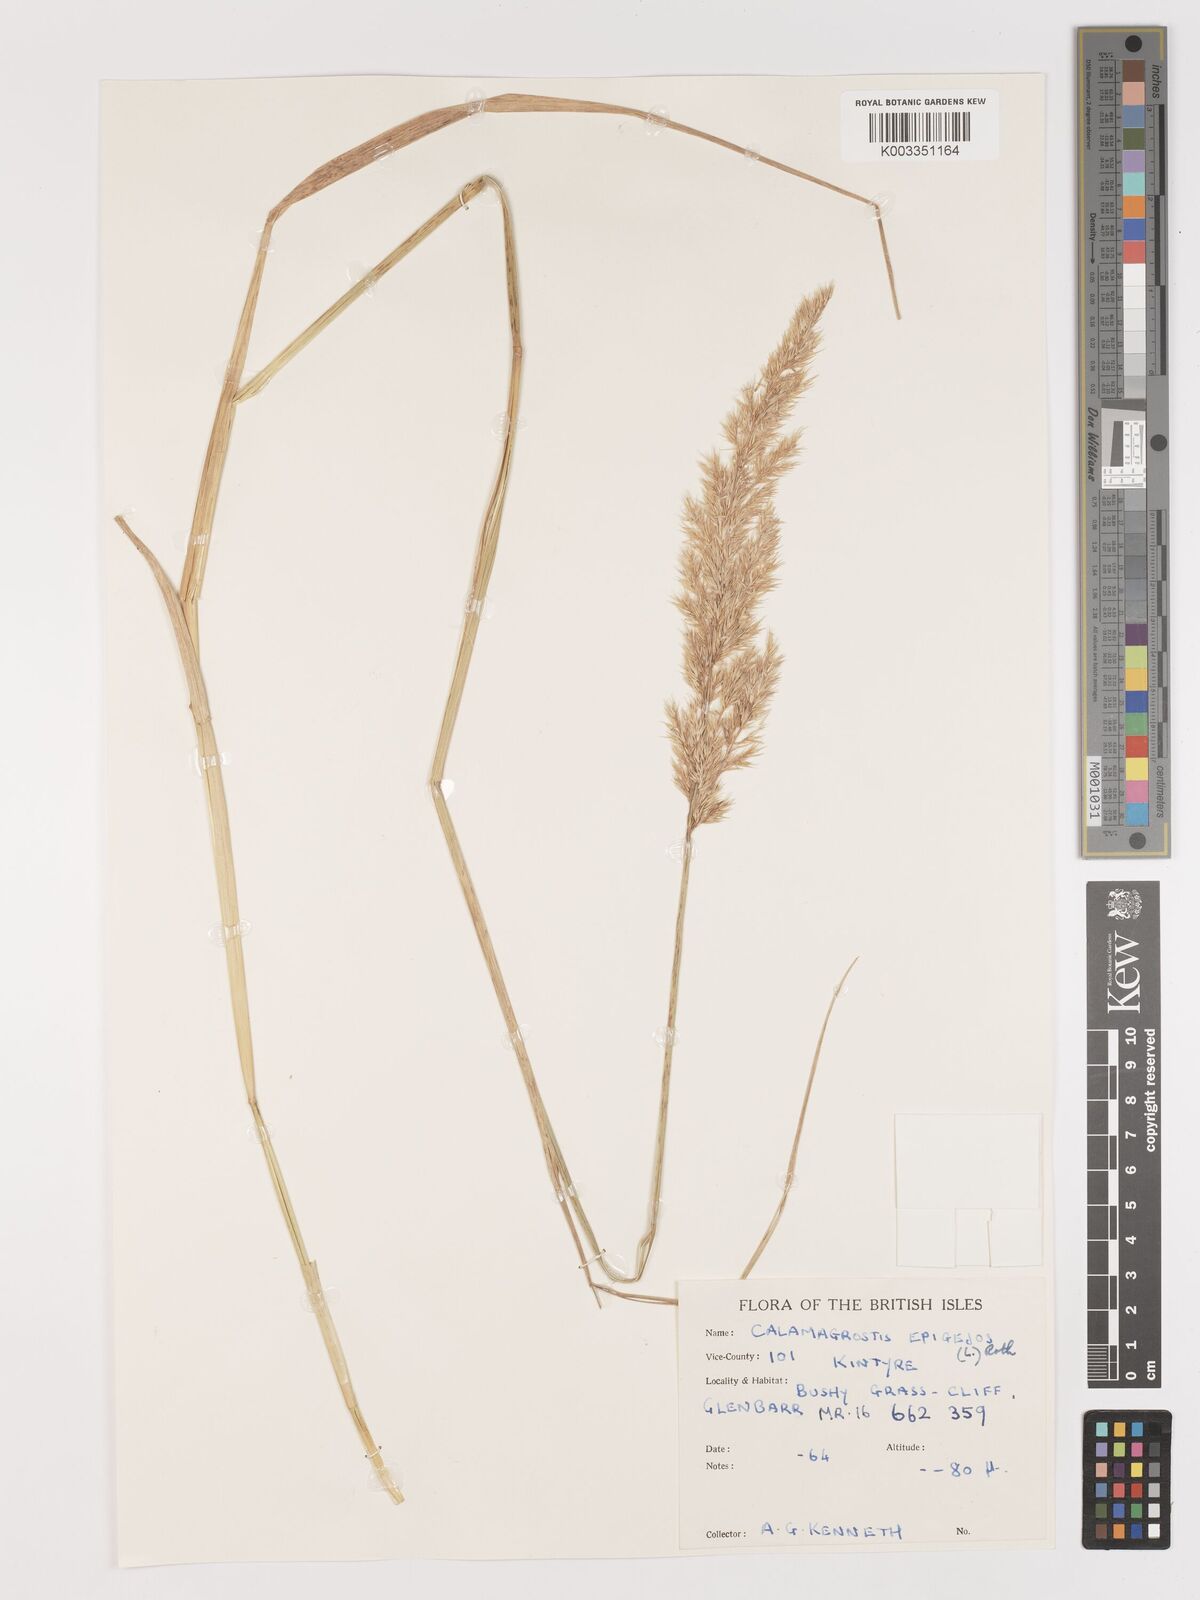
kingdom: Plantae
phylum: Tracheophyta
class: Liliopsida
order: Poales
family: Poaceae
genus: Calamagrostis
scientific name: Calamagrostis
